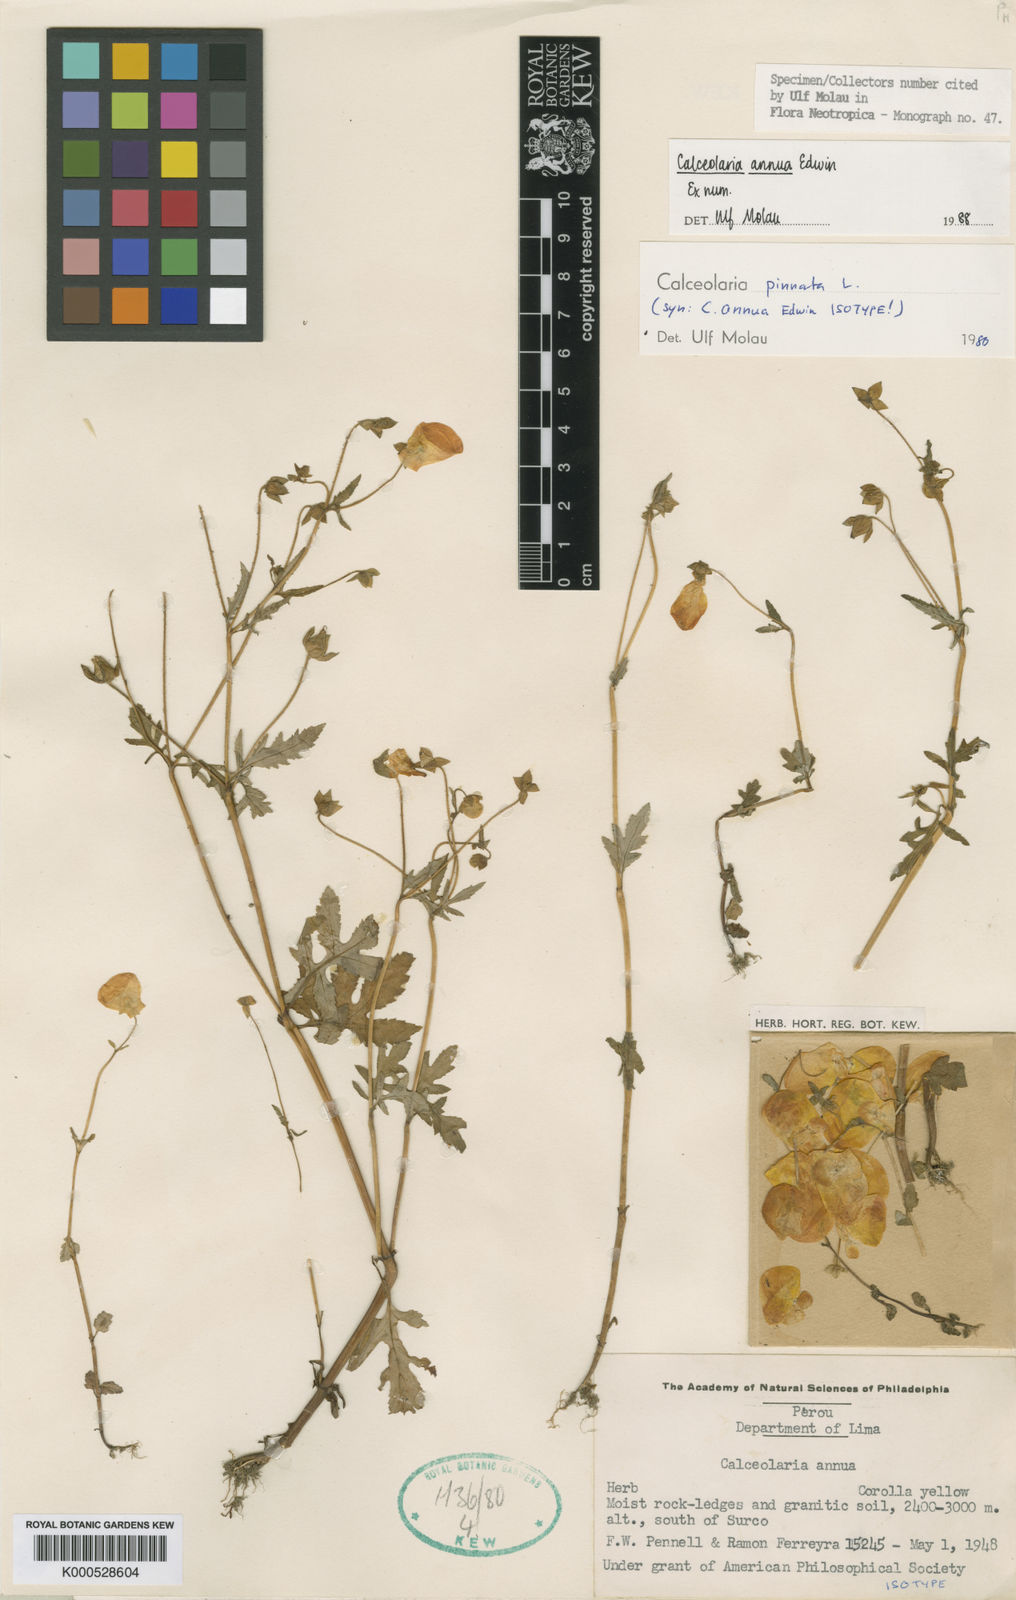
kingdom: Plantae
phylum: Tracheophyta
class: Magnoliopsida
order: Lamiales
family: Calceolariaceae
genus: Calceolaria
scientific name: Calceolaria annua
